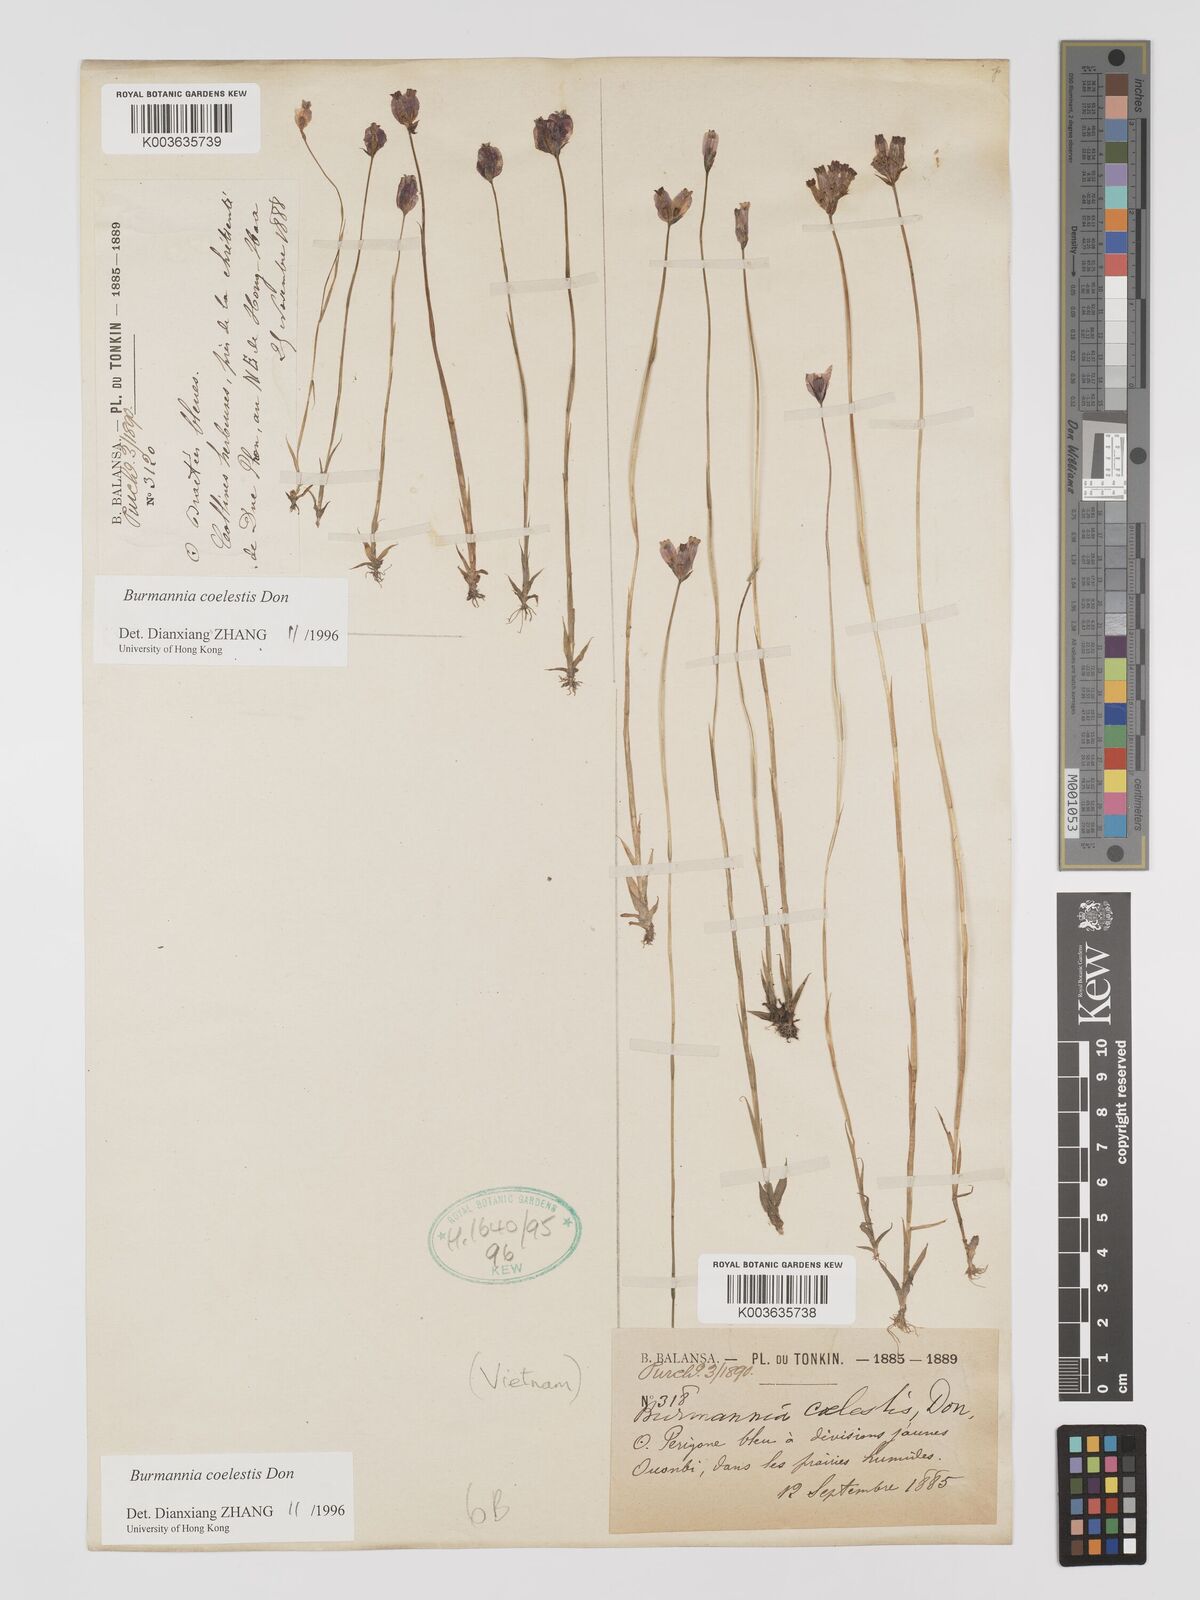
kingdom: Plantae
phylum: Tracheophyta
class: Liliopsida
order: Dioscoreales
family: Burmanniaceae
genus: Burmannia
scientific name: Burmannia coelestis
